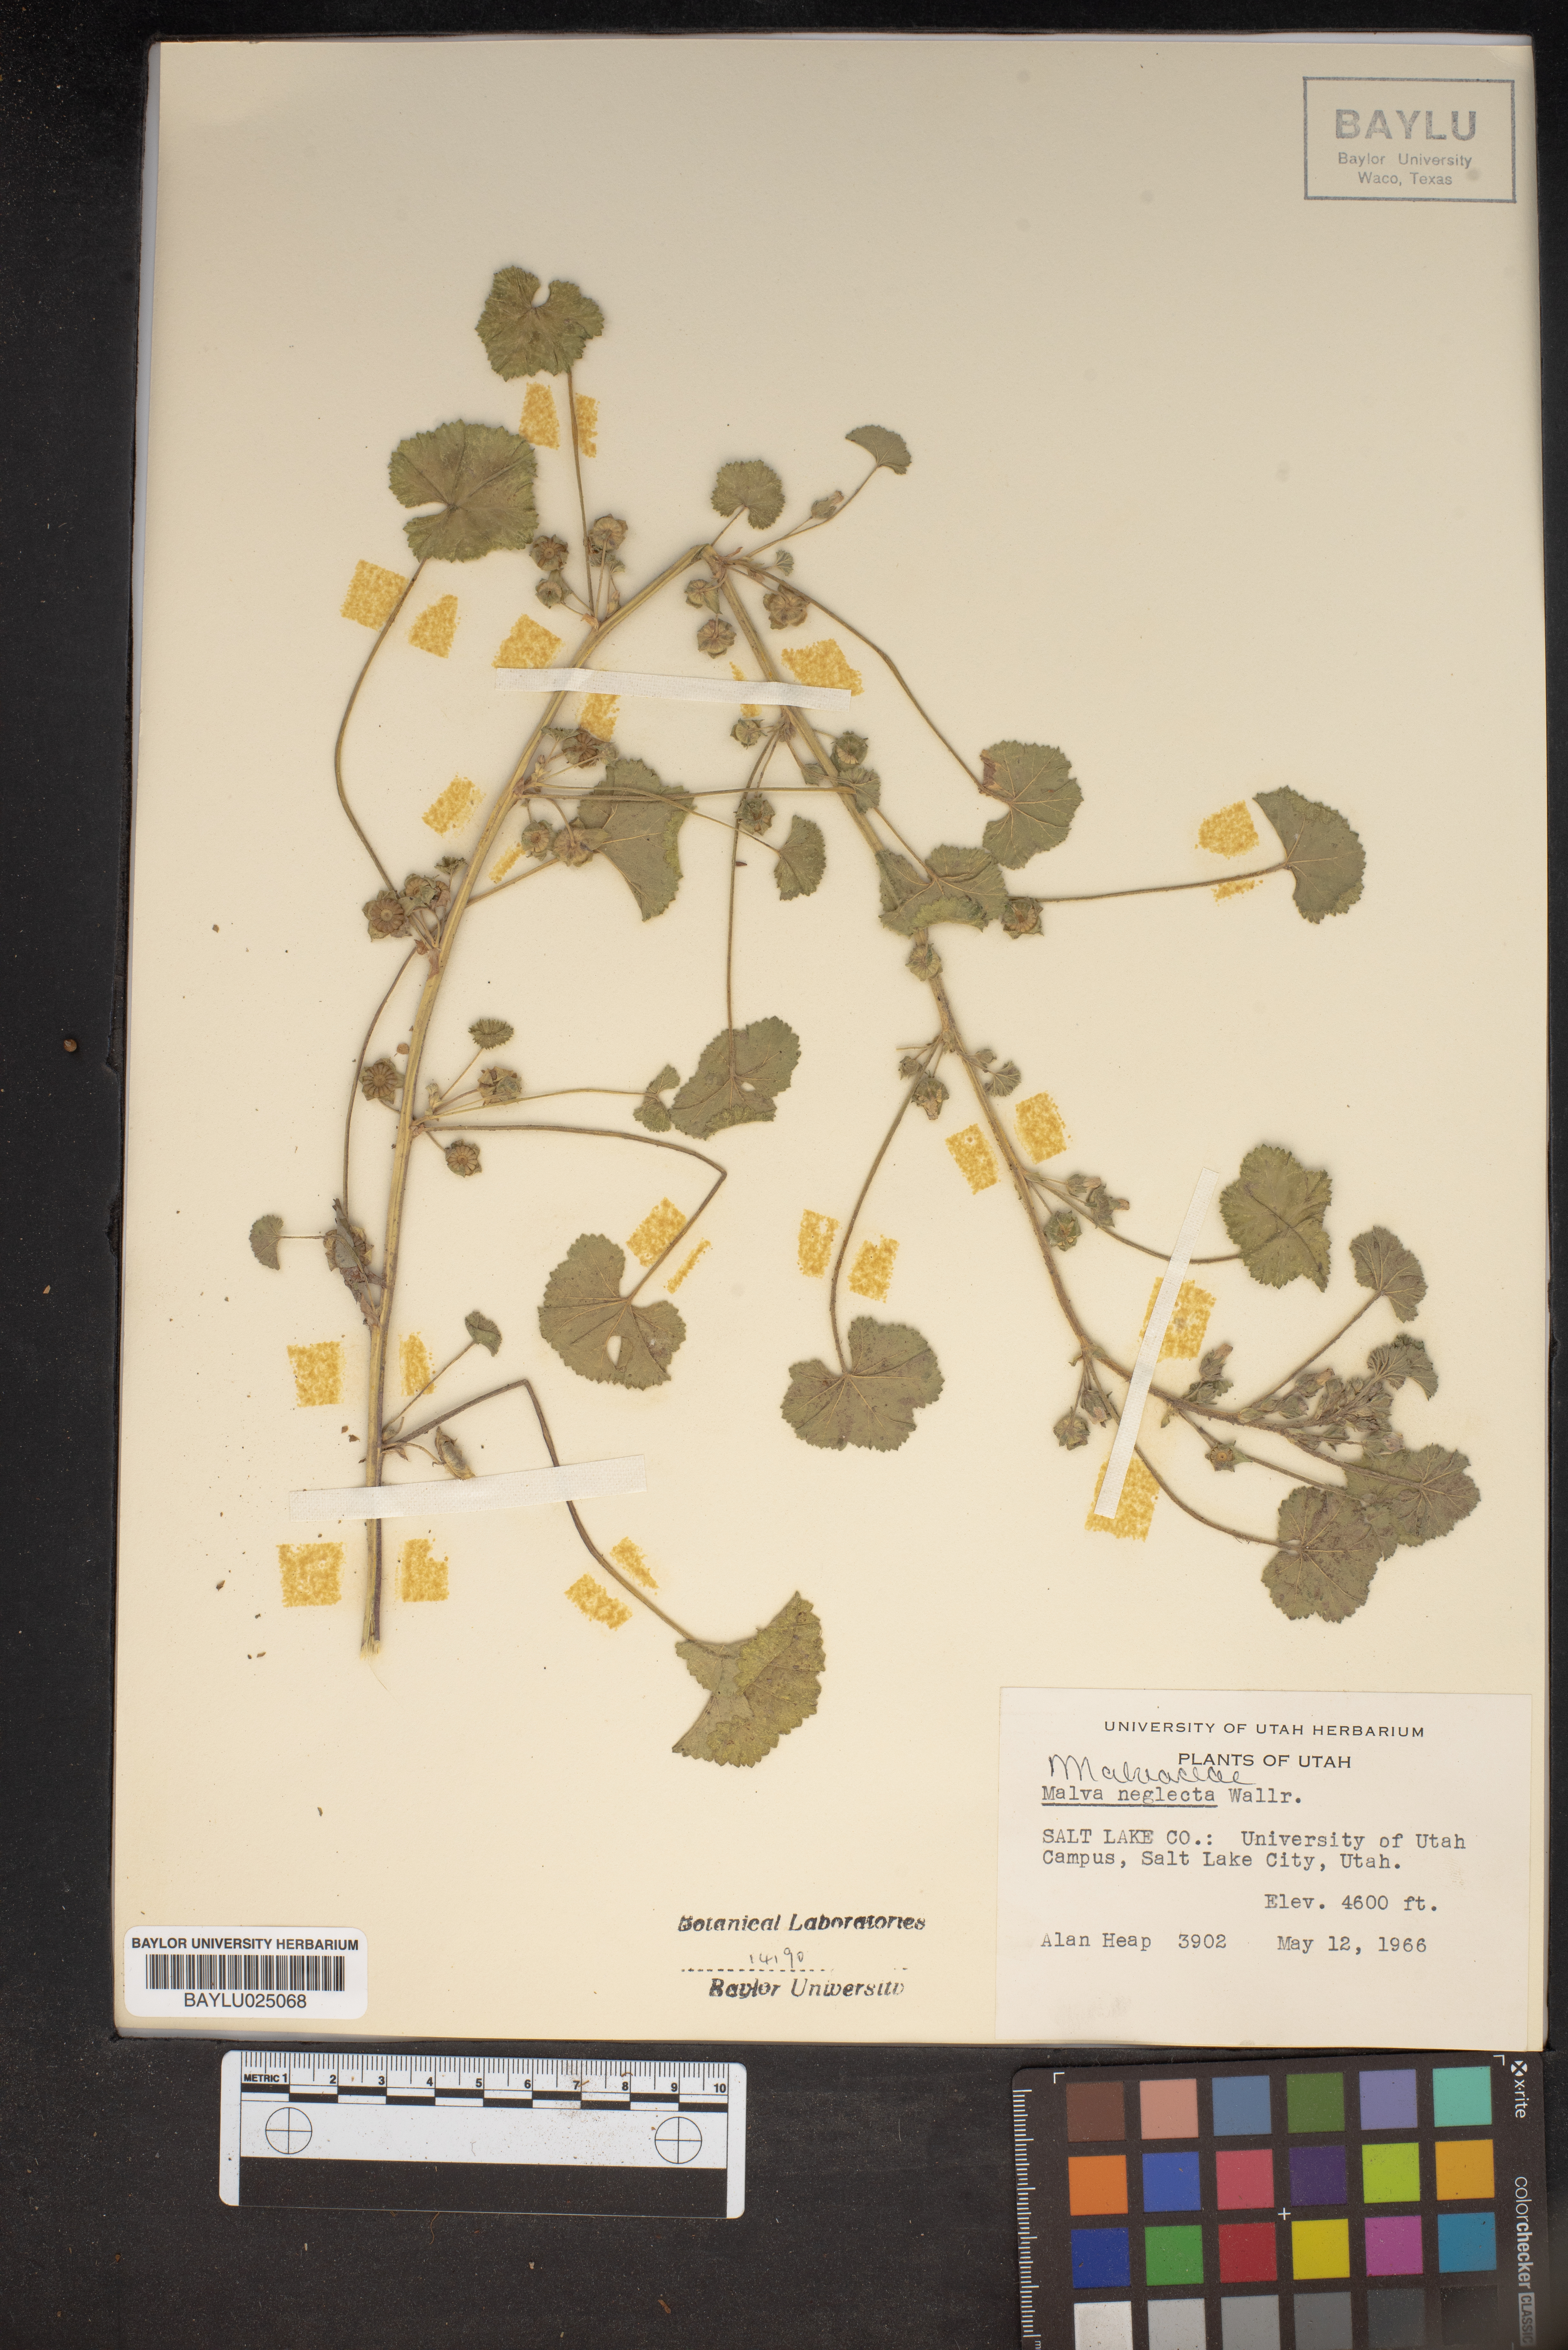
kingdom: Plantae
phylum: Tracheophyta
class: Magnoliopsida
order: Malvales
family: Malvaceae
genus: Malva
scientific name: Malva neglecta
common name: Common mallow
